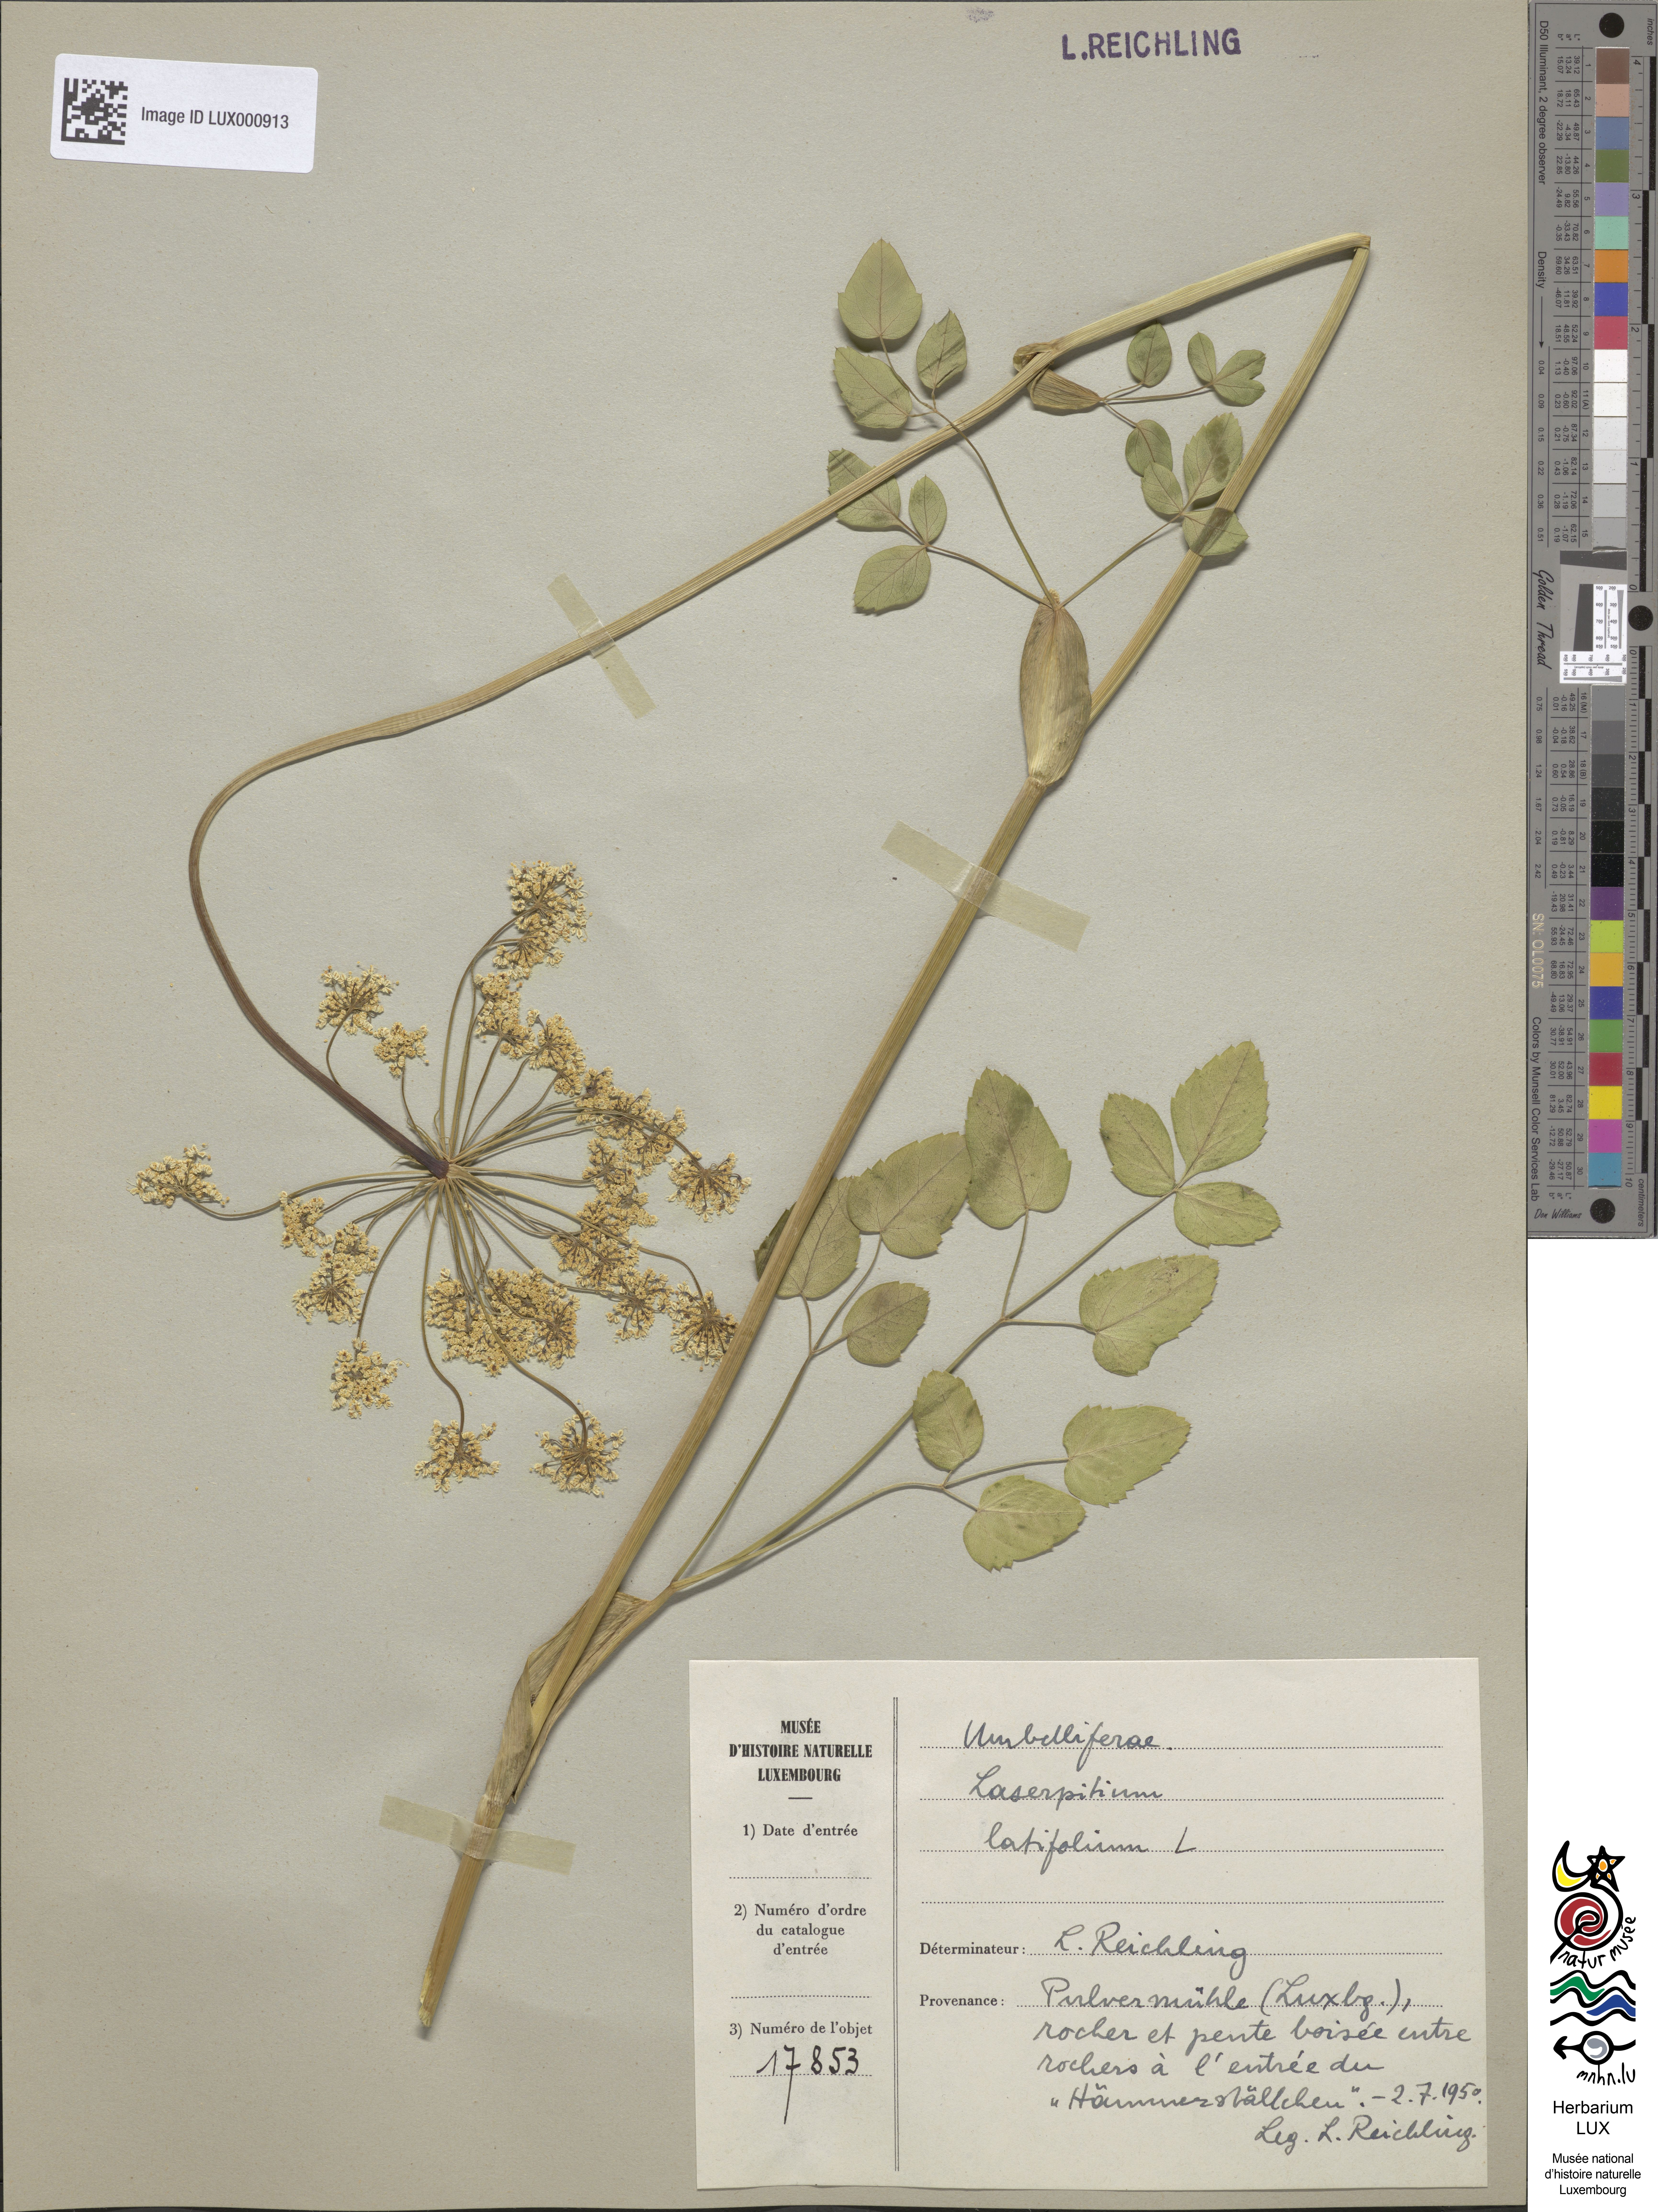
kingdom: Plantae
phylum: Tracheophyta
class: Magnoliopsida
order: Apiales
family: Apiaceae
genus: Laserpitium
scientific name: Laserpitium latifolium
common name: Broadleaf sermountain
